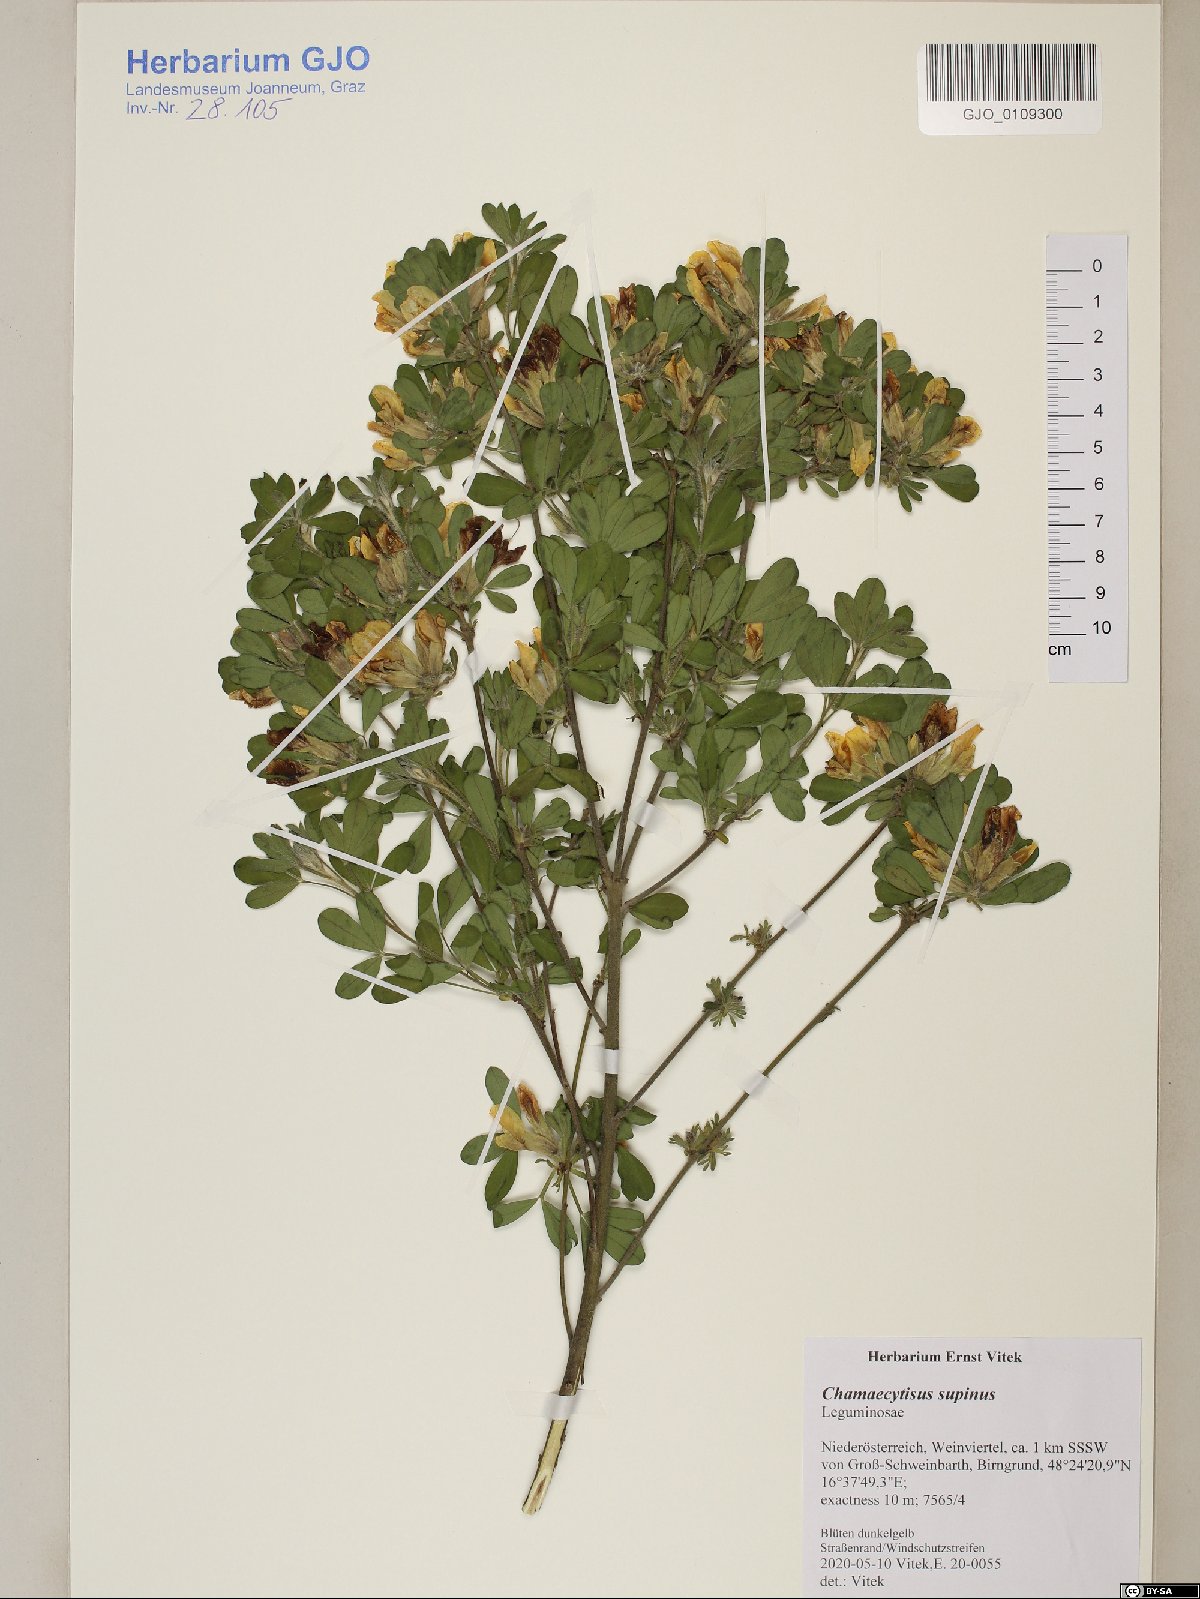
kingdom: Plantae
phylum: Tracheophyta
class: Magnoliopsida
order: Fabales
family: Fabaceae
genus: Chamaecytisus
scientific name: Chamaecytisus supinus
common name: Clustered broom
